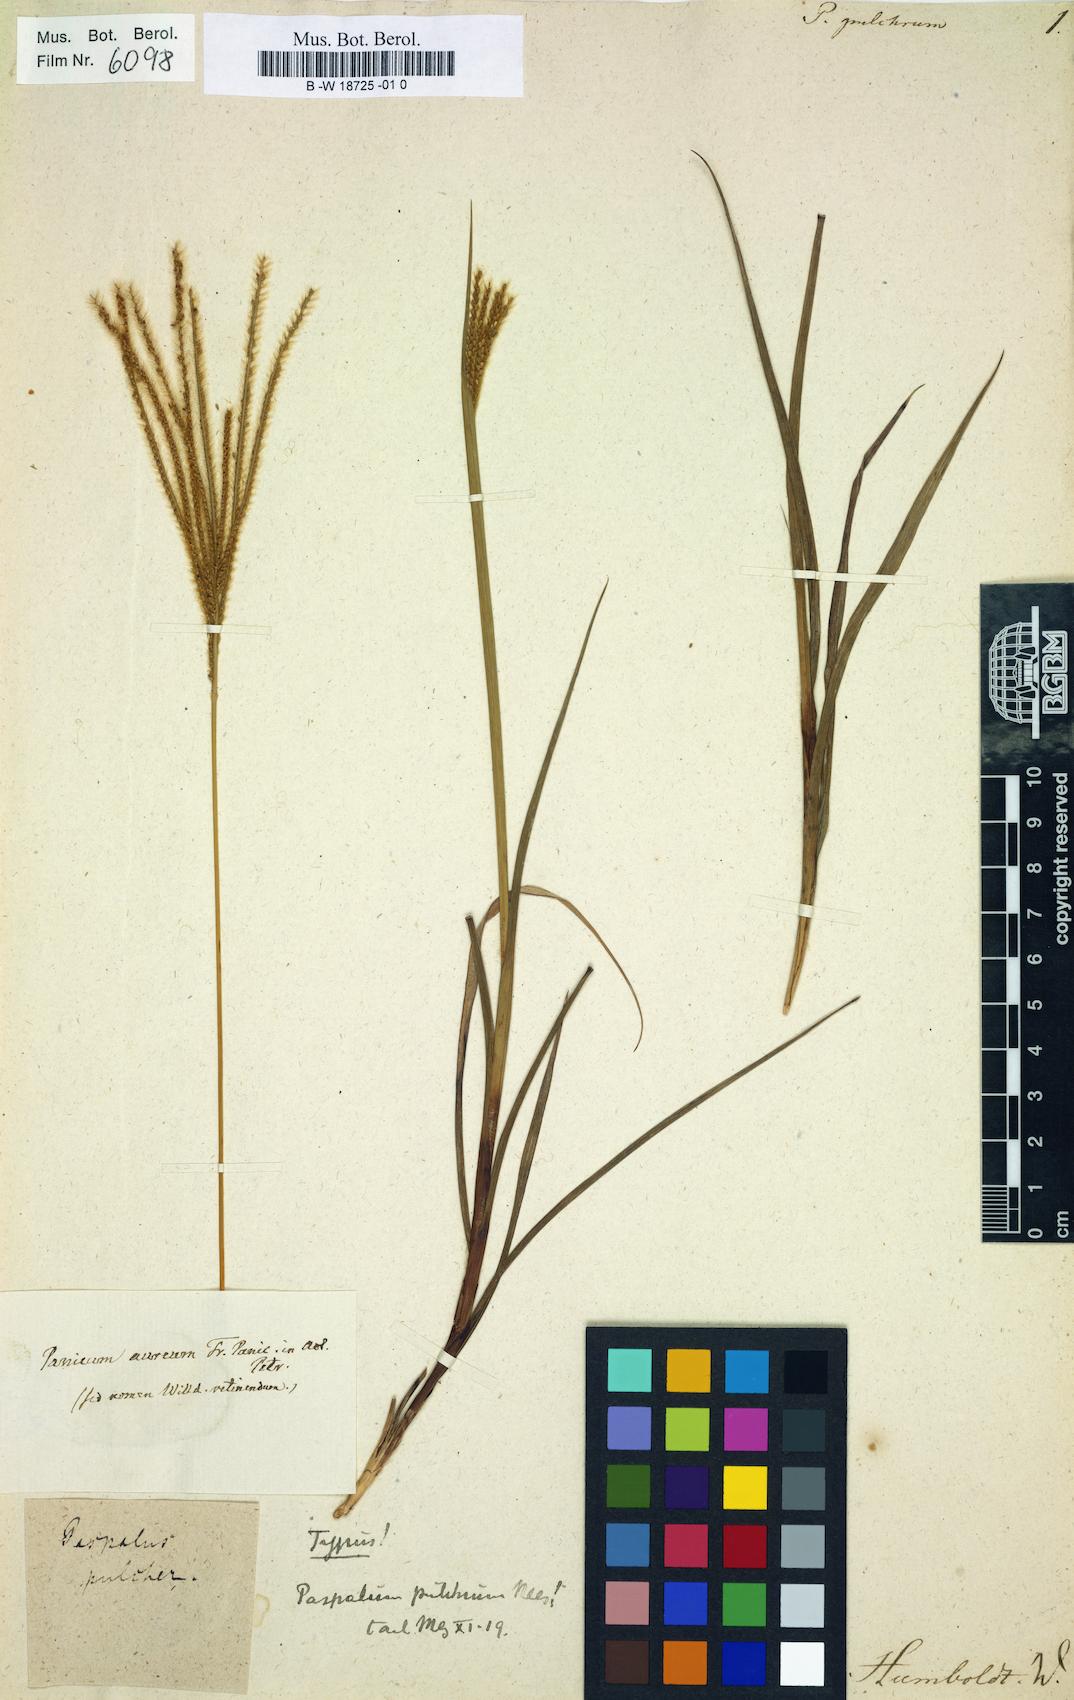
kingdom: Plantae
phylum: Tracheophyta
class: Liliopsida
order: Poales
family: Poaceae
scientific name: Poaceae
